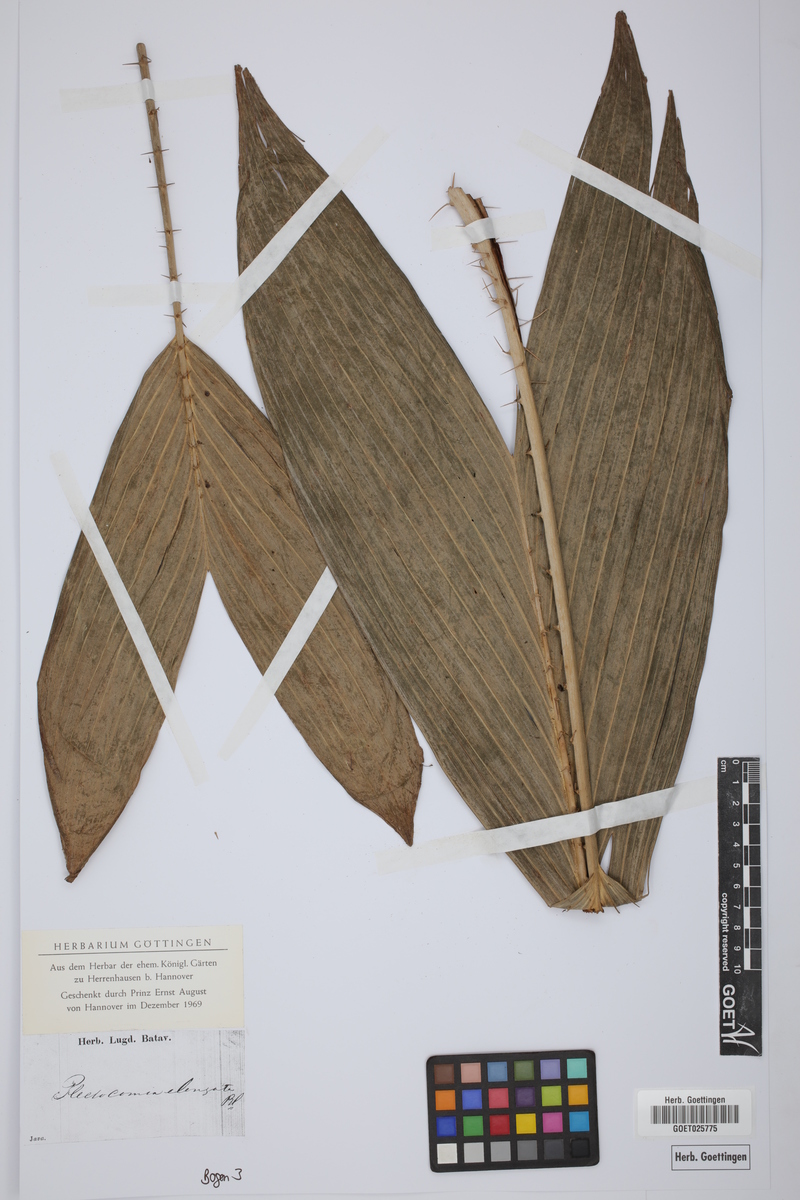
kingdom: Plantae
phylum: Tracheophyta
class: Liliopsida
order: Arecales
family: Arecaceae
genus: Plectocomia
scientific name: Plectocomia elongata
